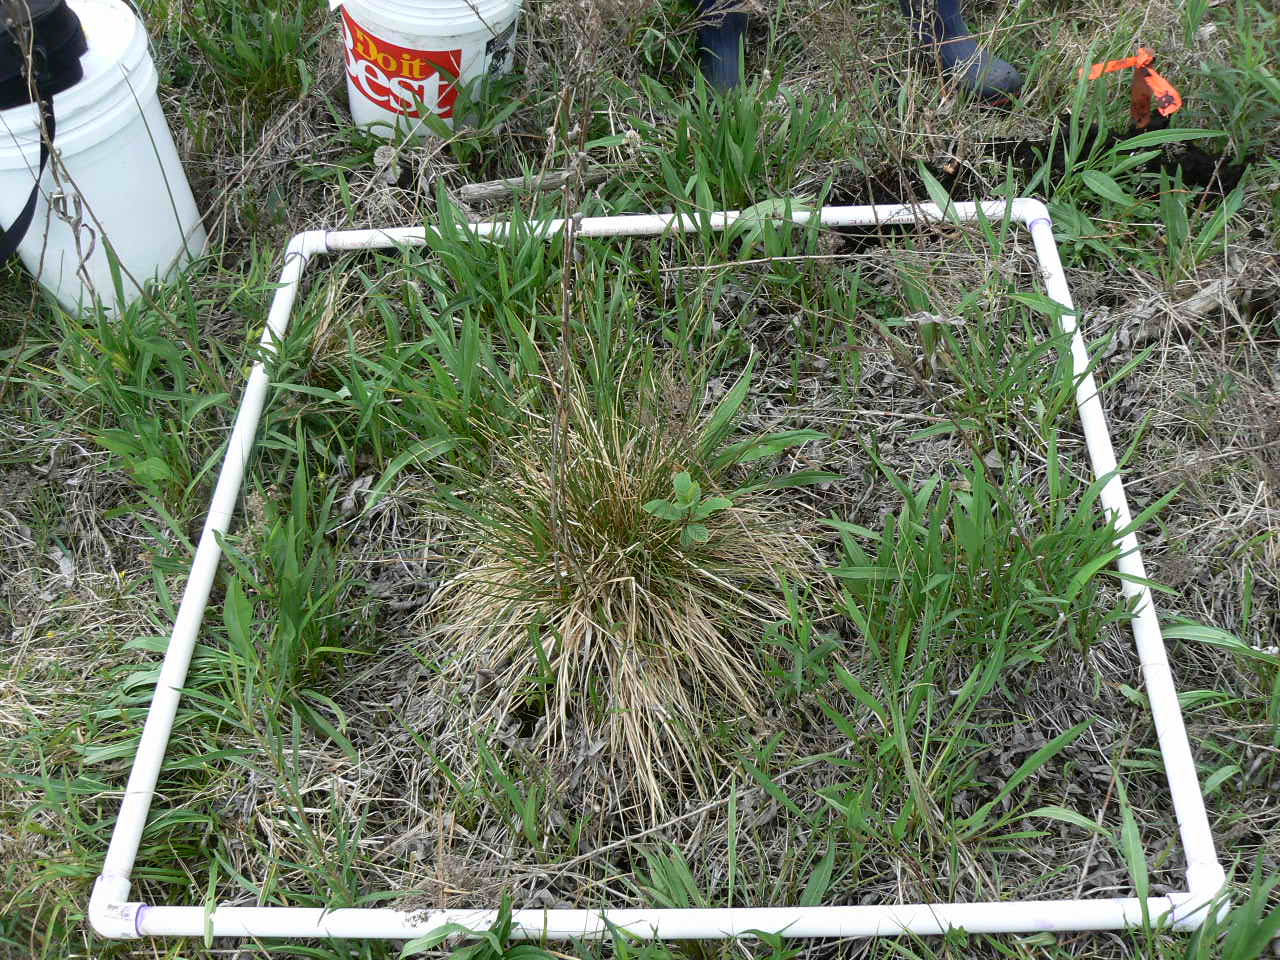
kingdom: Plantae
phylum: Tracheophyta
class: Magnoliopsida
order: Asterales
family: Asteraceae
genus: Symphyotrichum
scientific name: Symphyotrichum
